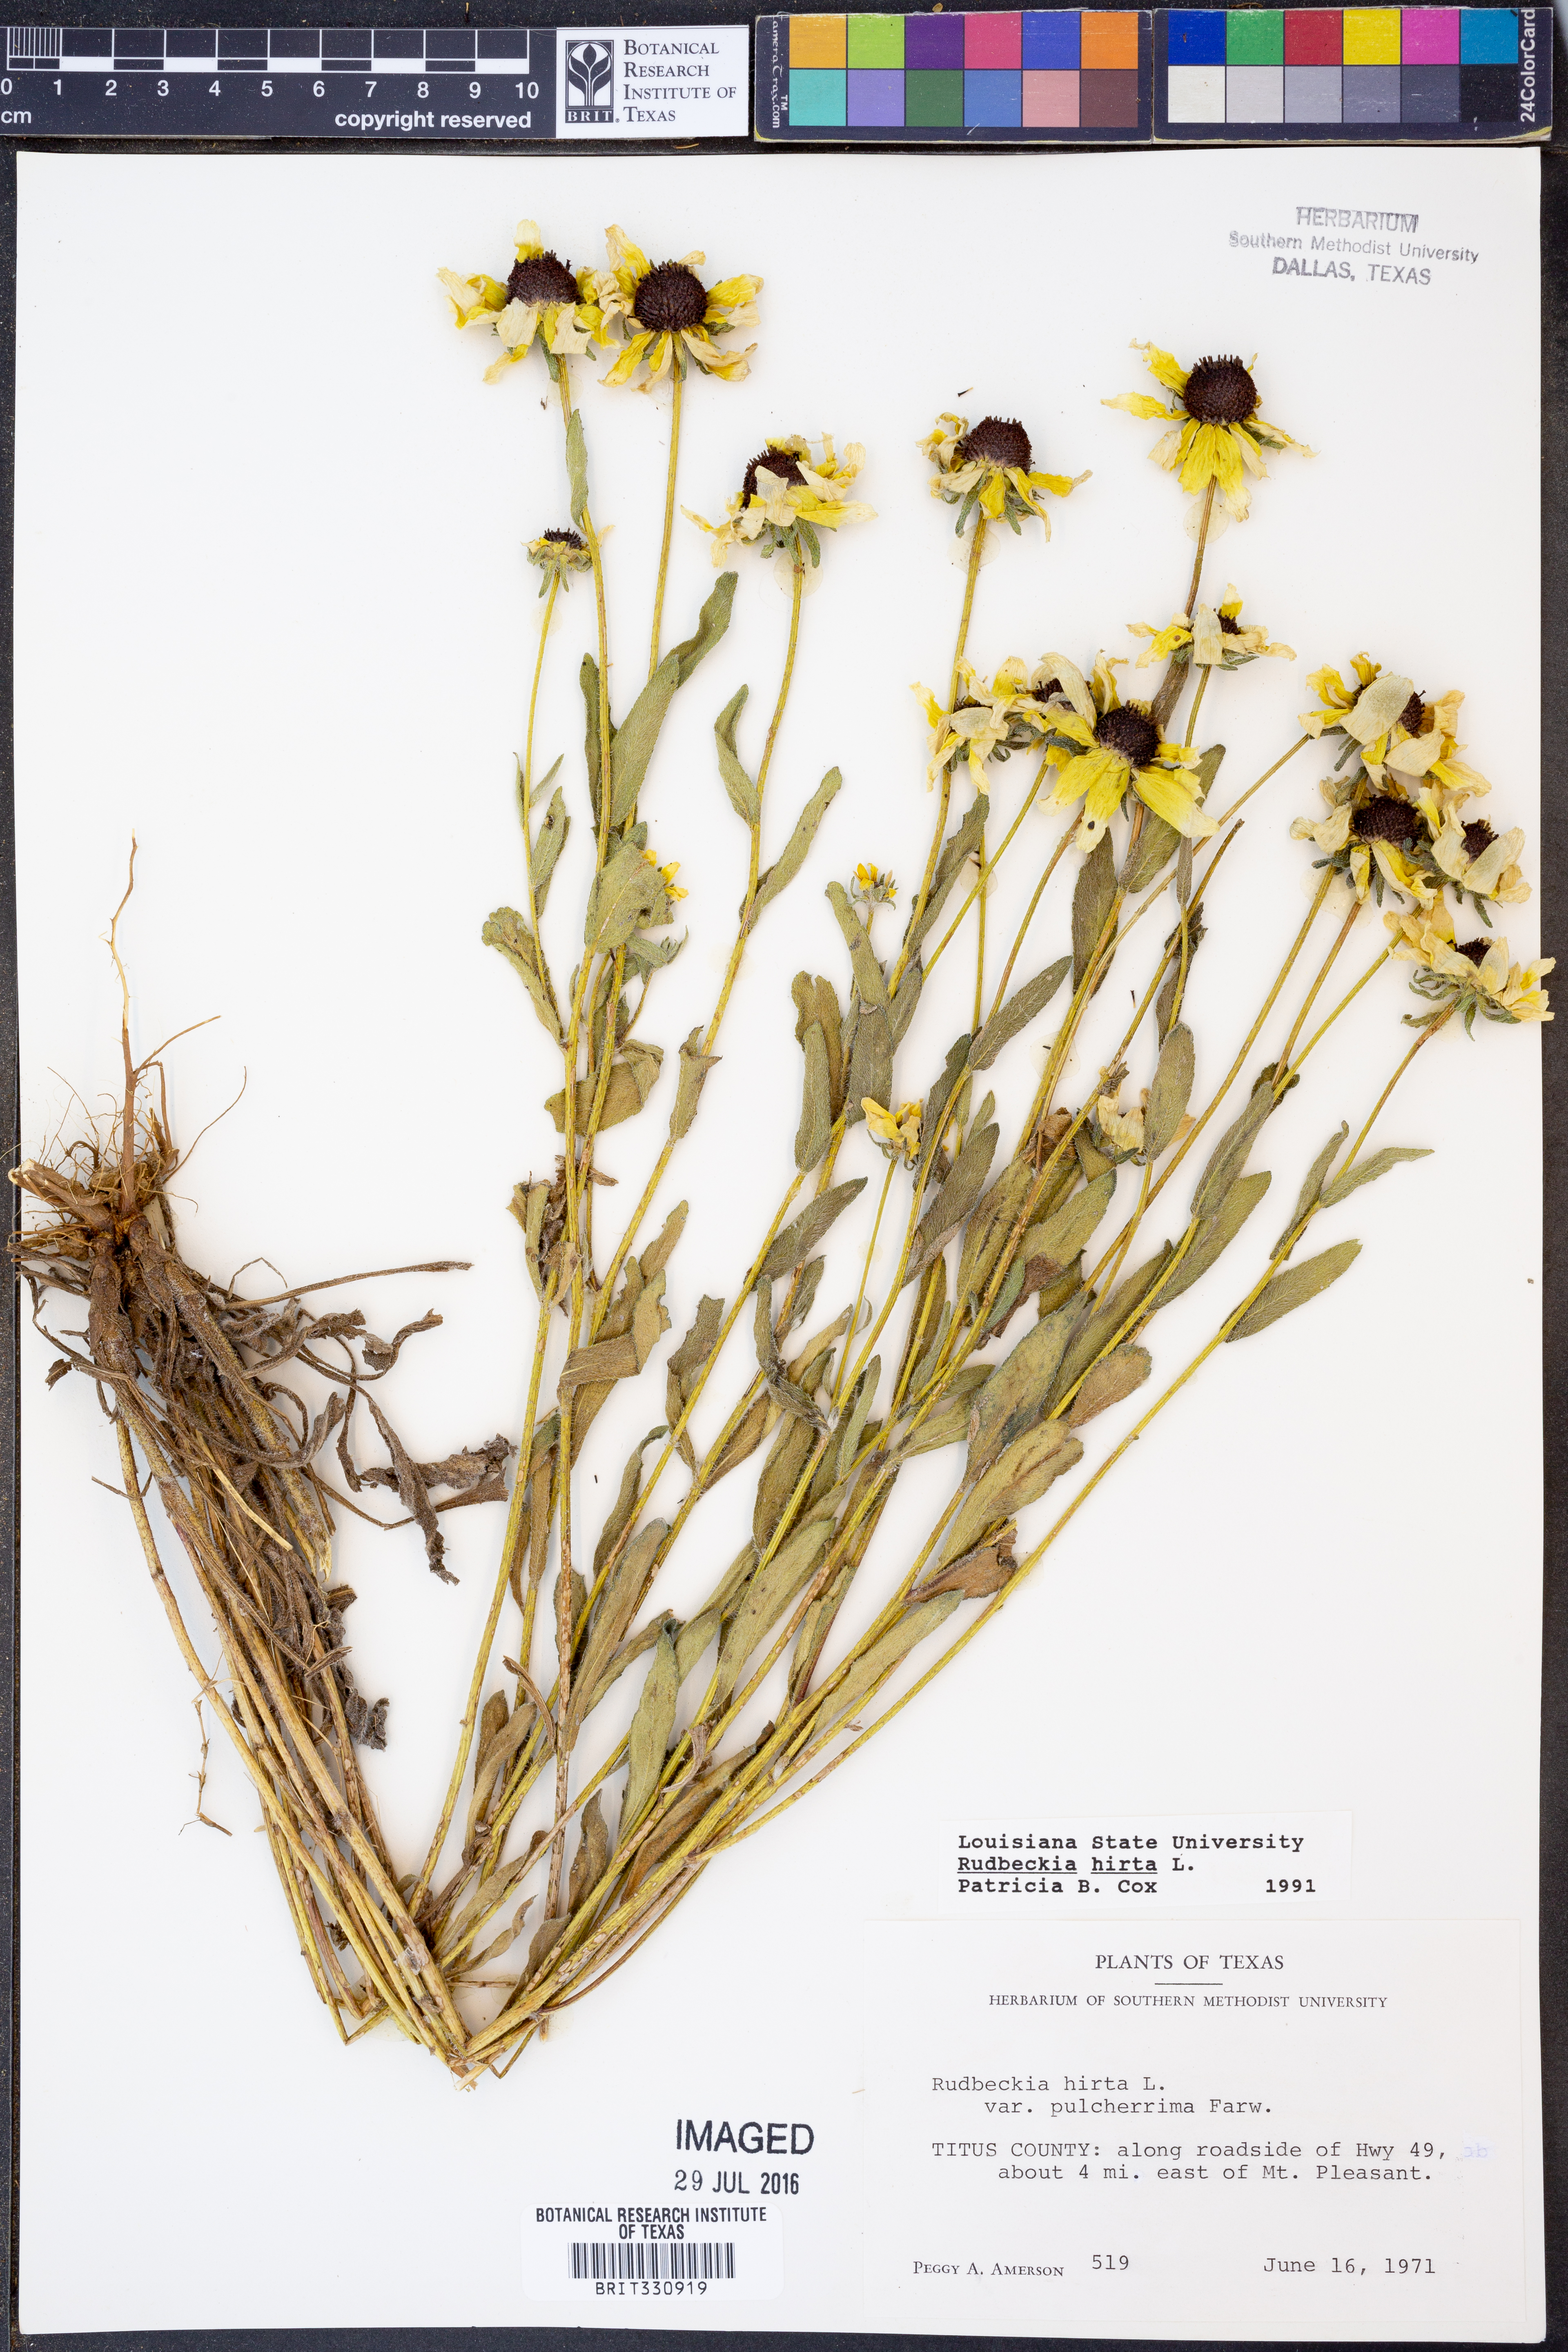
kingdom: Plantae
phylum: Tracheophyta
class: Magnoliopsida
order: Asterales
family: Asteraceae
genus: Rudbeckia
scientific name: Rudbeckia hirta
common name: Black-eyed-susan
